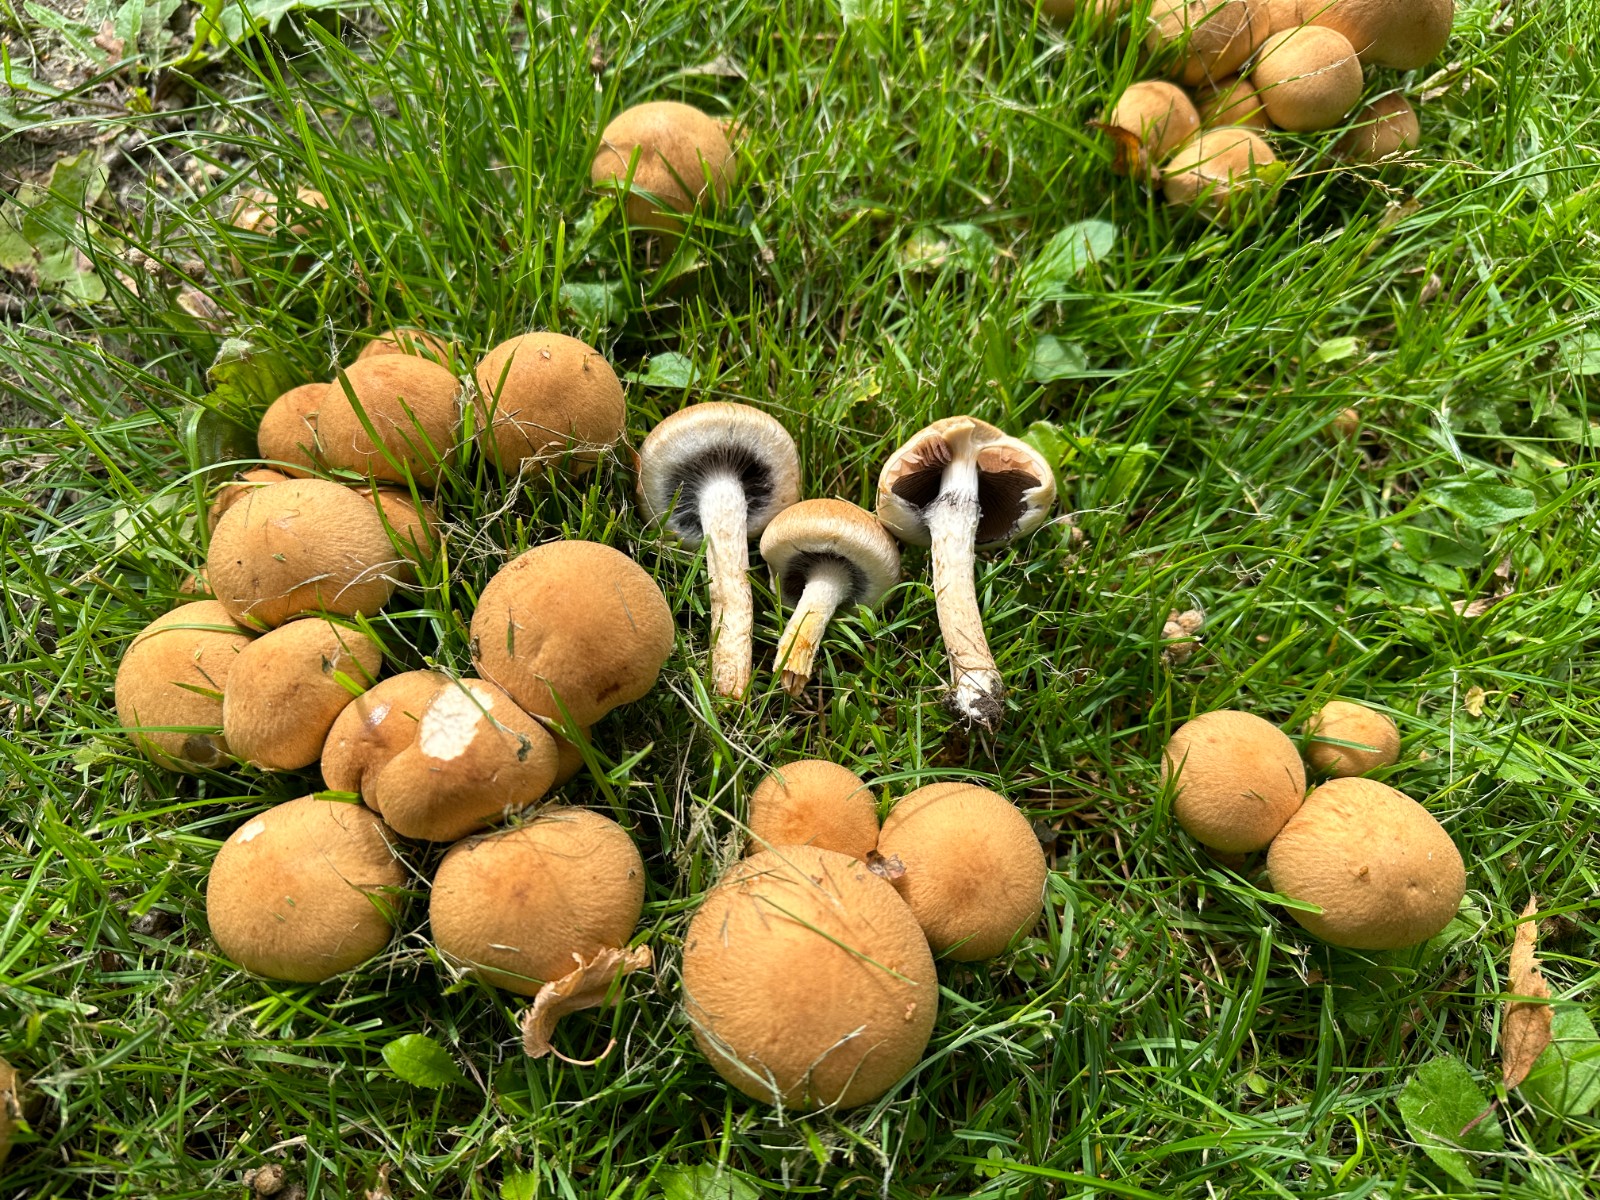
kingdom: Fungi
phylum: Basidiomycota
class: Agaricomycetes
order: Agaricales
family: Psathyrellaceae
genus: Lacrymaria
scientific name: Lacrymaria lacrymabunda
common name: grædende mørkhat
